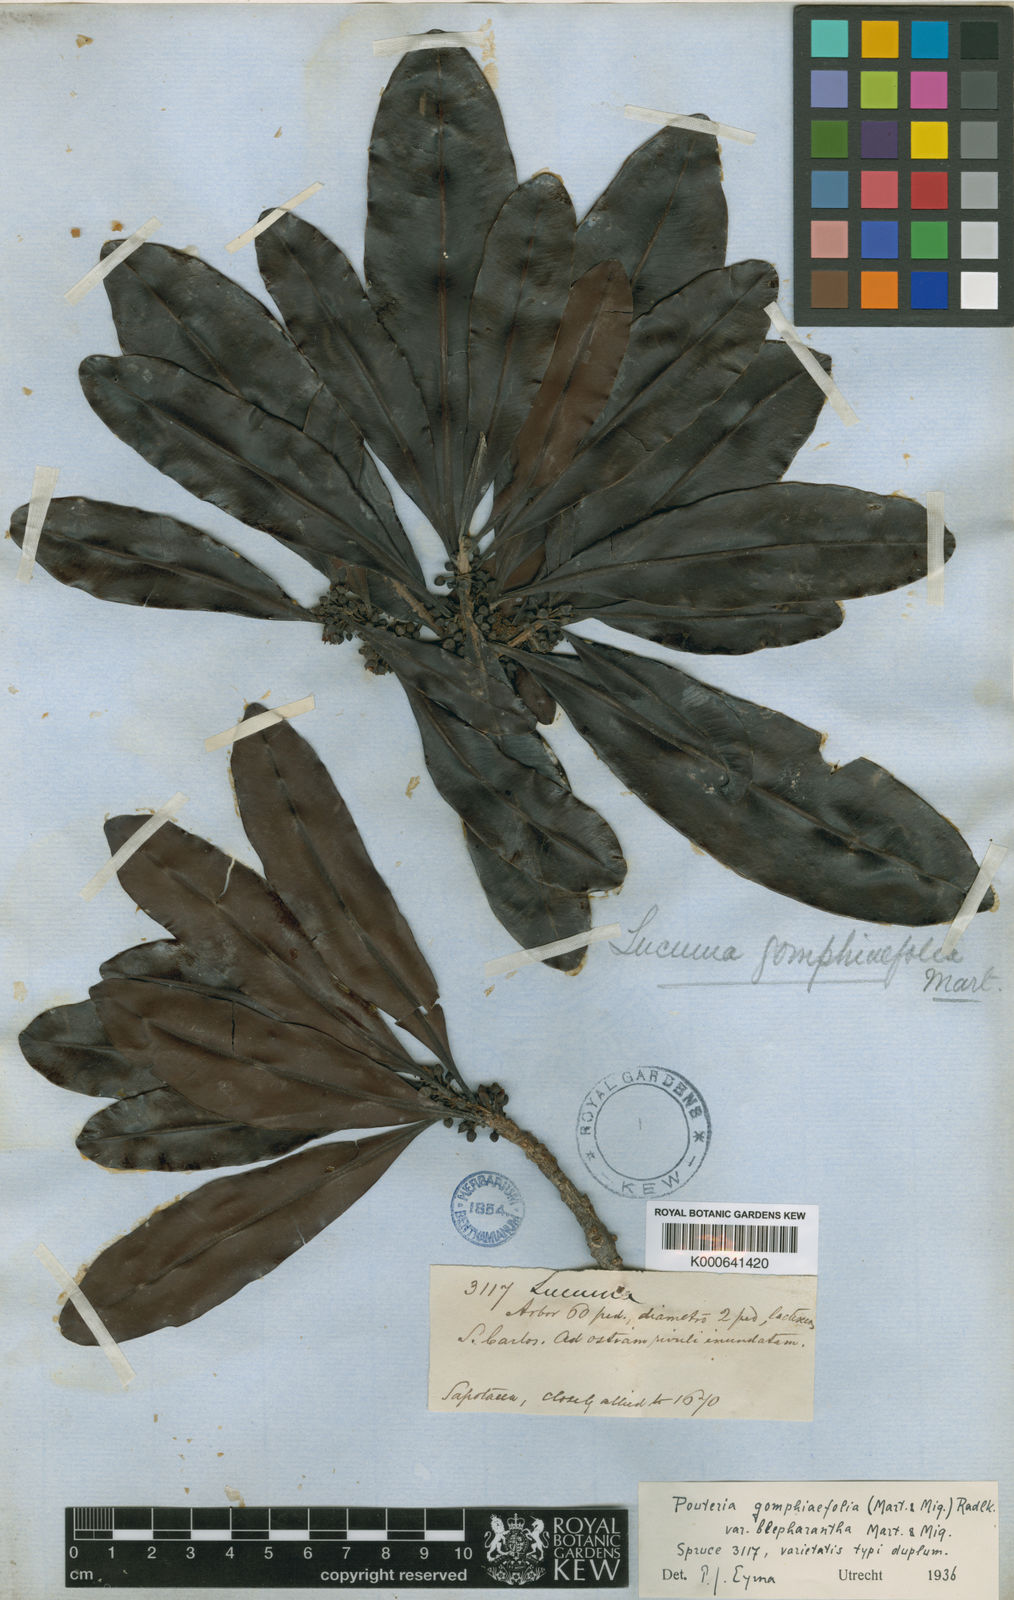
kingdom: Plantae
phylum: Tracheophyta
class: Magnoliopsida
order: Ericales
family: Sapotaceae
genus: Pouteria
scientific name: Pouteria gomphiifolia
